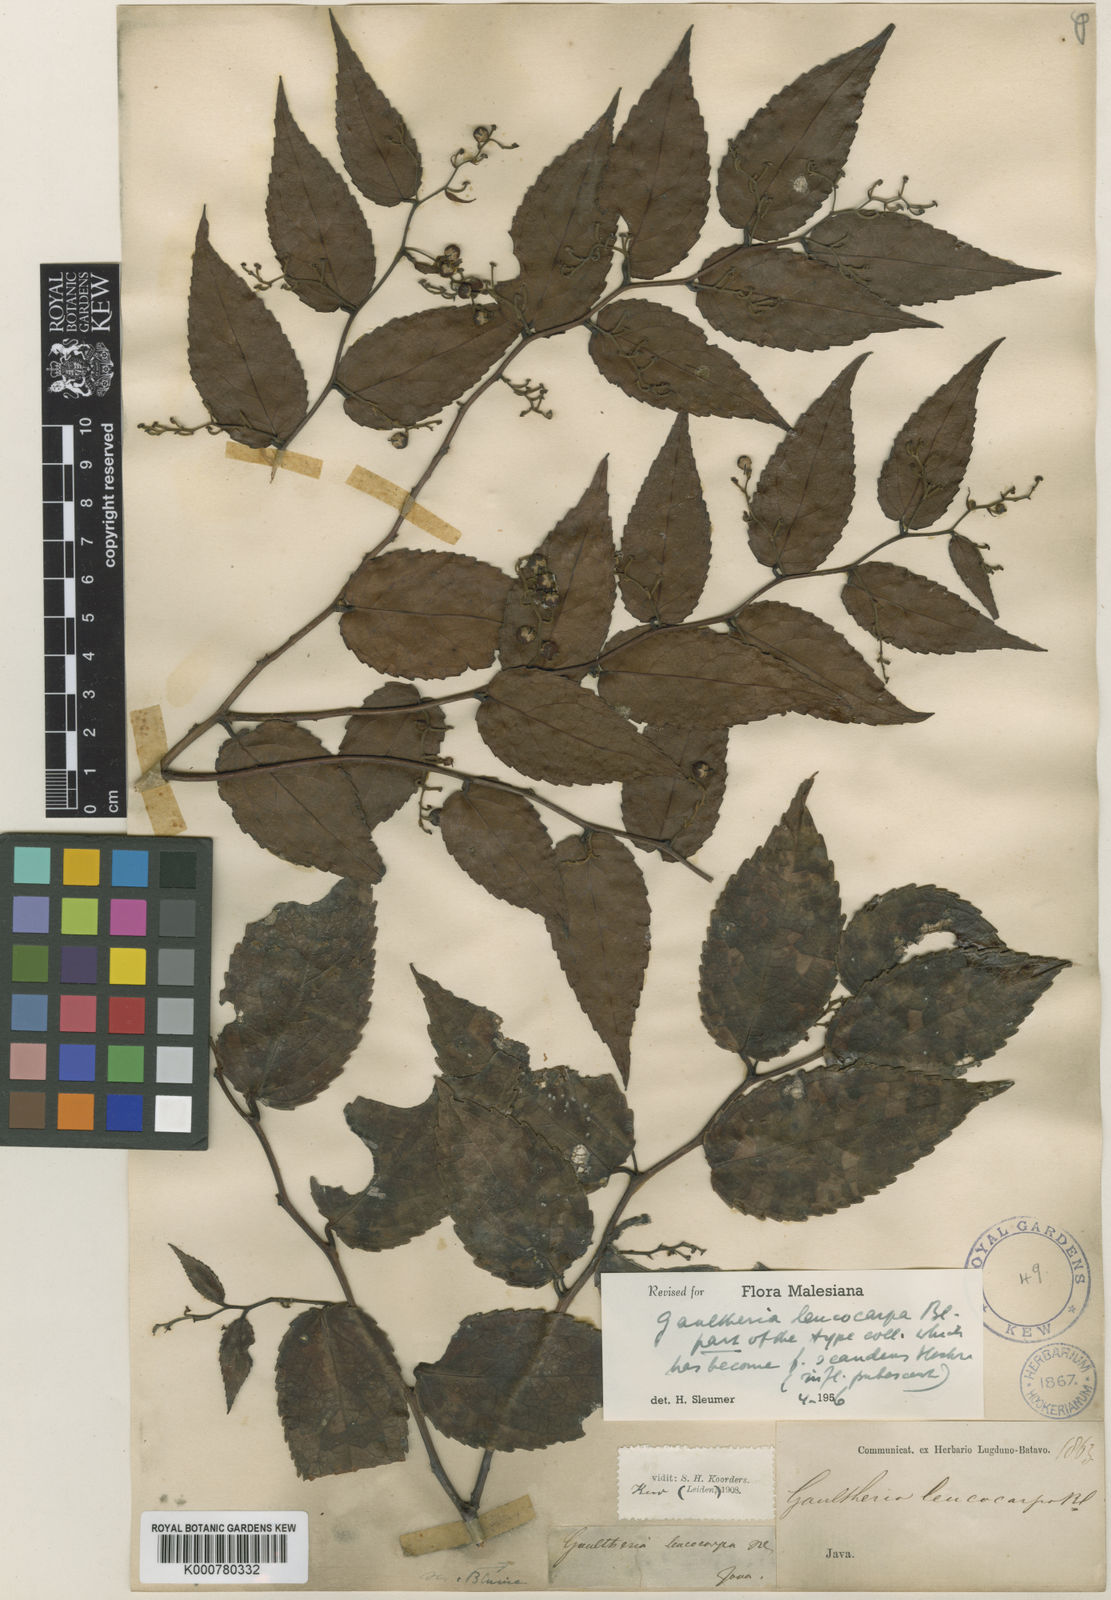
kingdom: Plantae
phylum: Tracheophyta
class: Magnoliopsida
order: Ericales
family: Ericaceae
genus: Gaultheria
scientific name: Gaultheria leucocarpa
